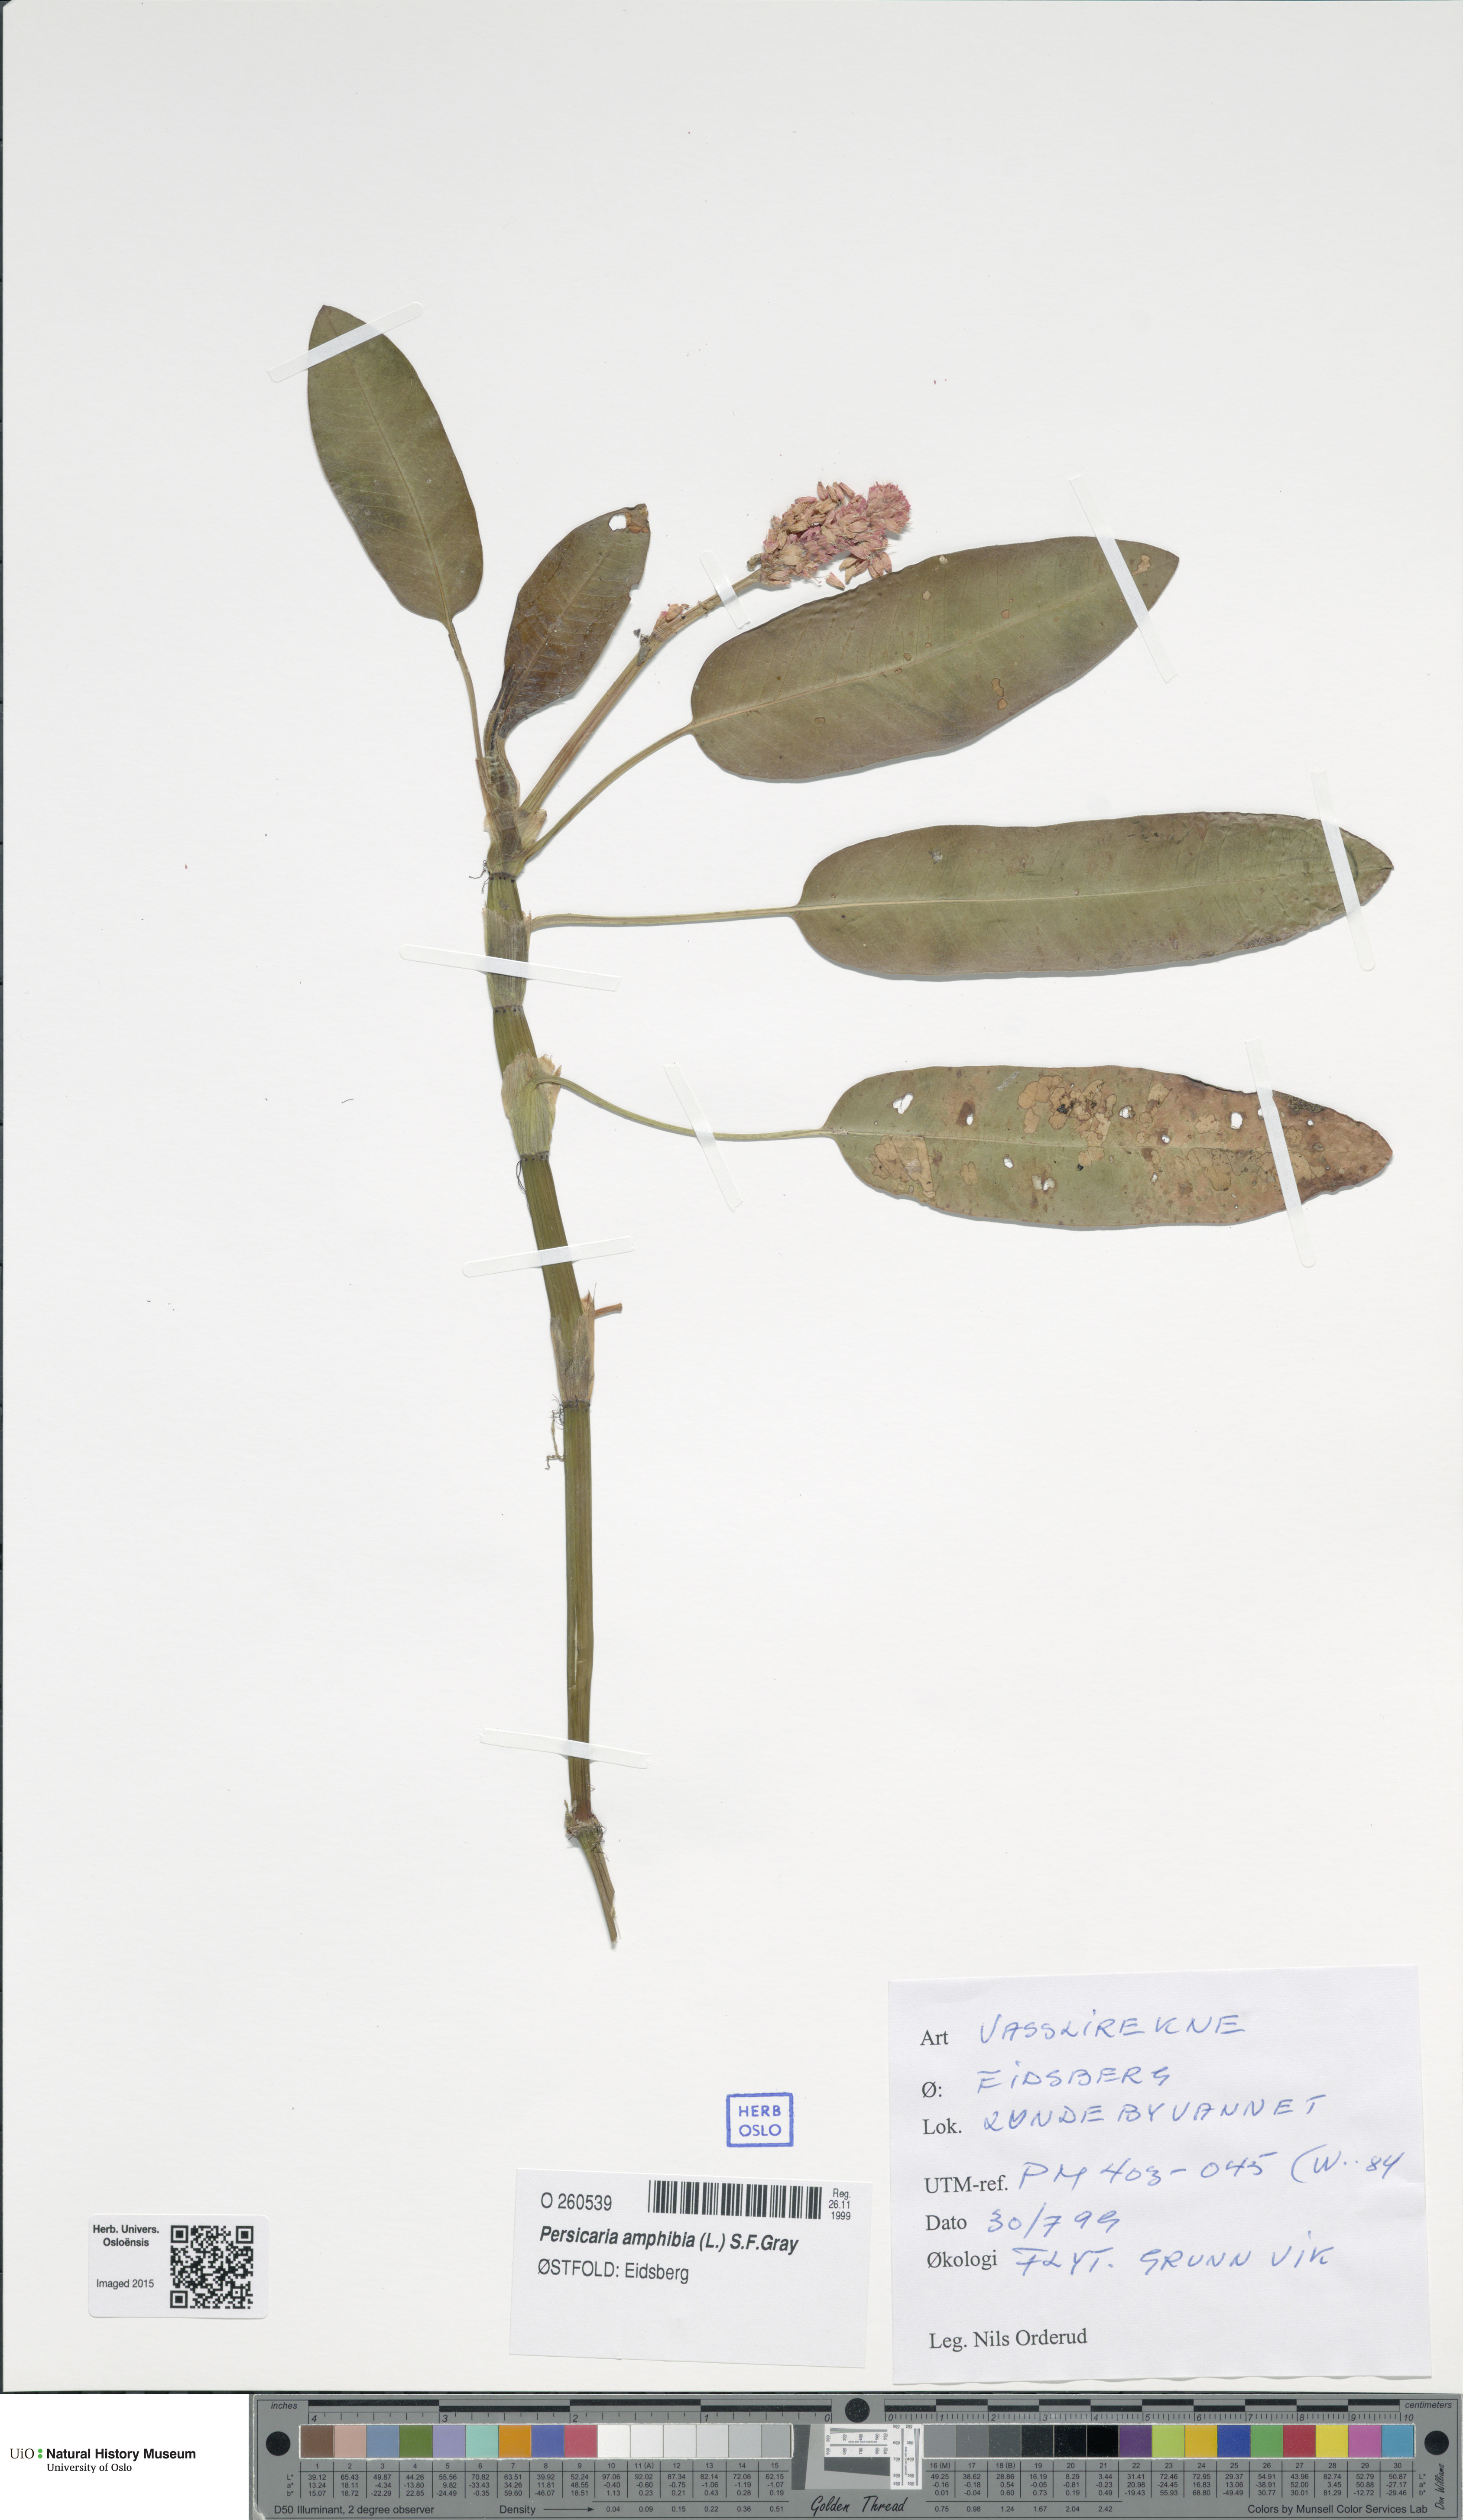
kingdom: Plantae
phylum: Tracheophyta
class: Magnoliopsida
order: Caryophyllales
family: Polygonaceae
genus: Persicaria
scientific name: Persicaria amphibia
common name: Amphibious bistort
